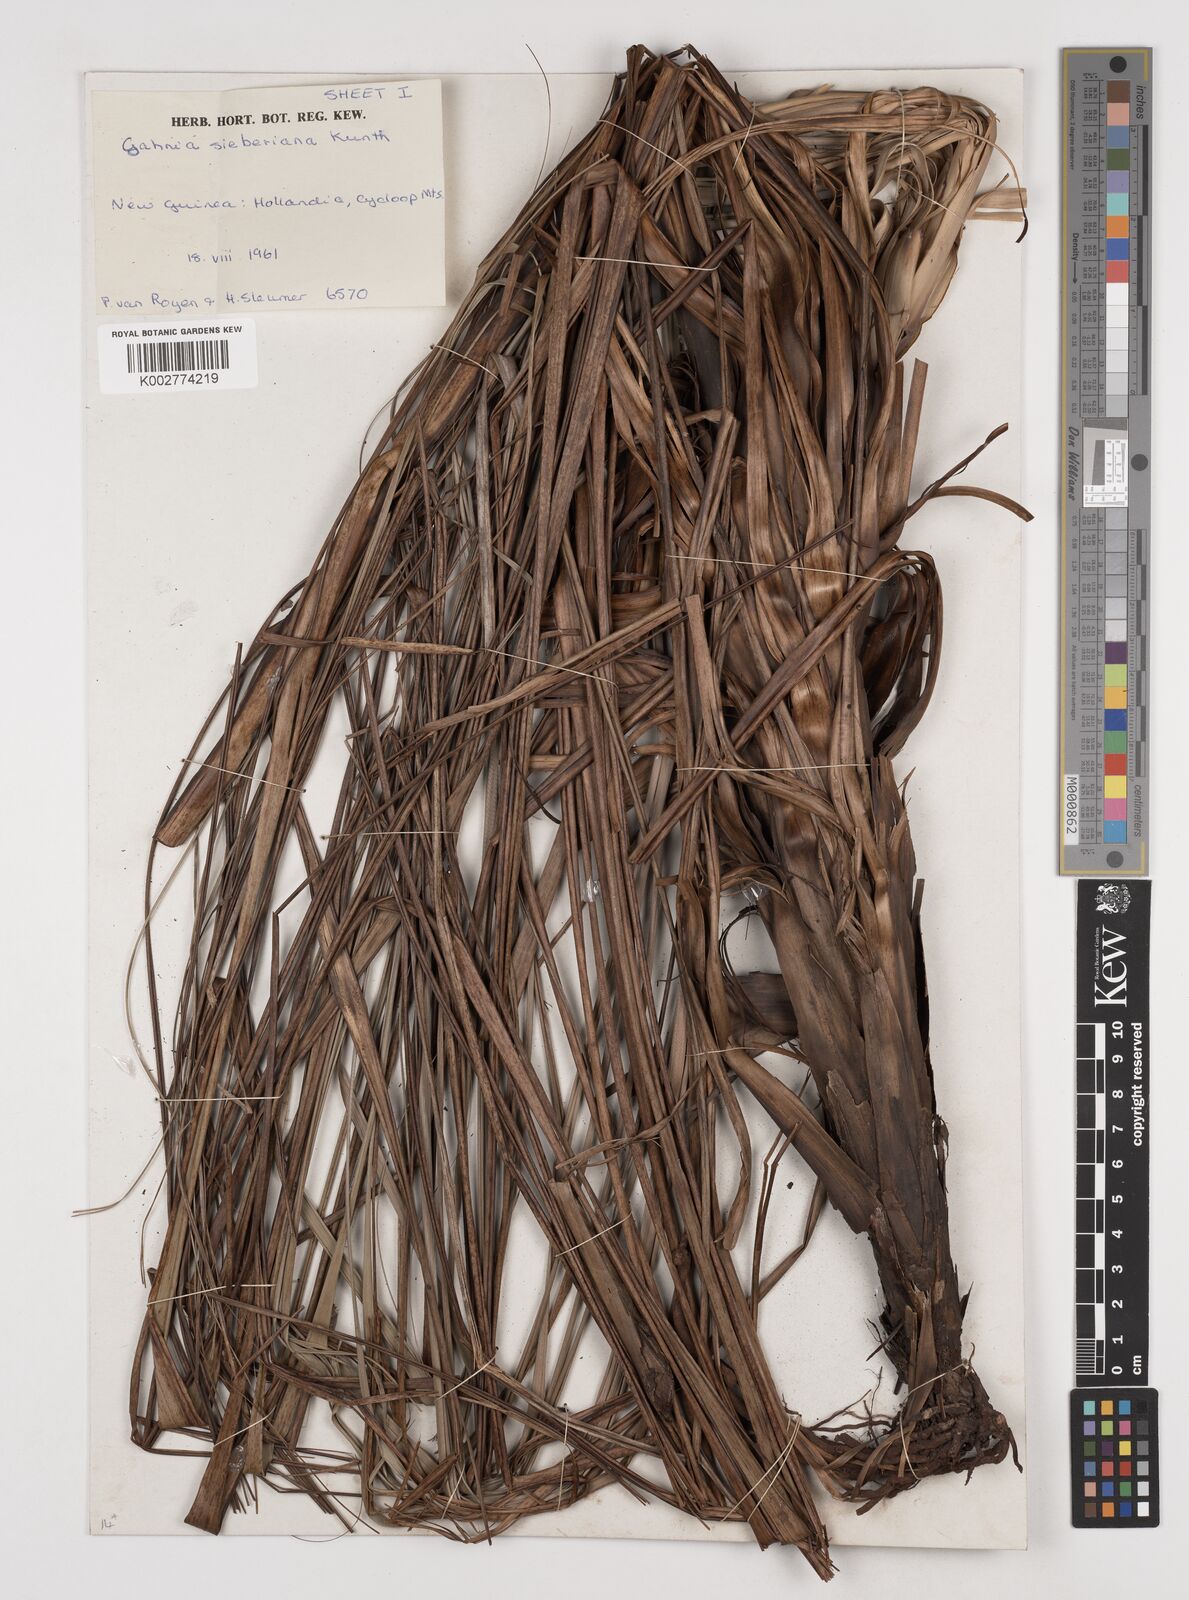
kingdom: Plantae
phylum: Tracheophyta
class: Liliopsida
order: Poales
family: Cyperaceae
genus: Gahnia
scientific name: Gahnia sieberiana
